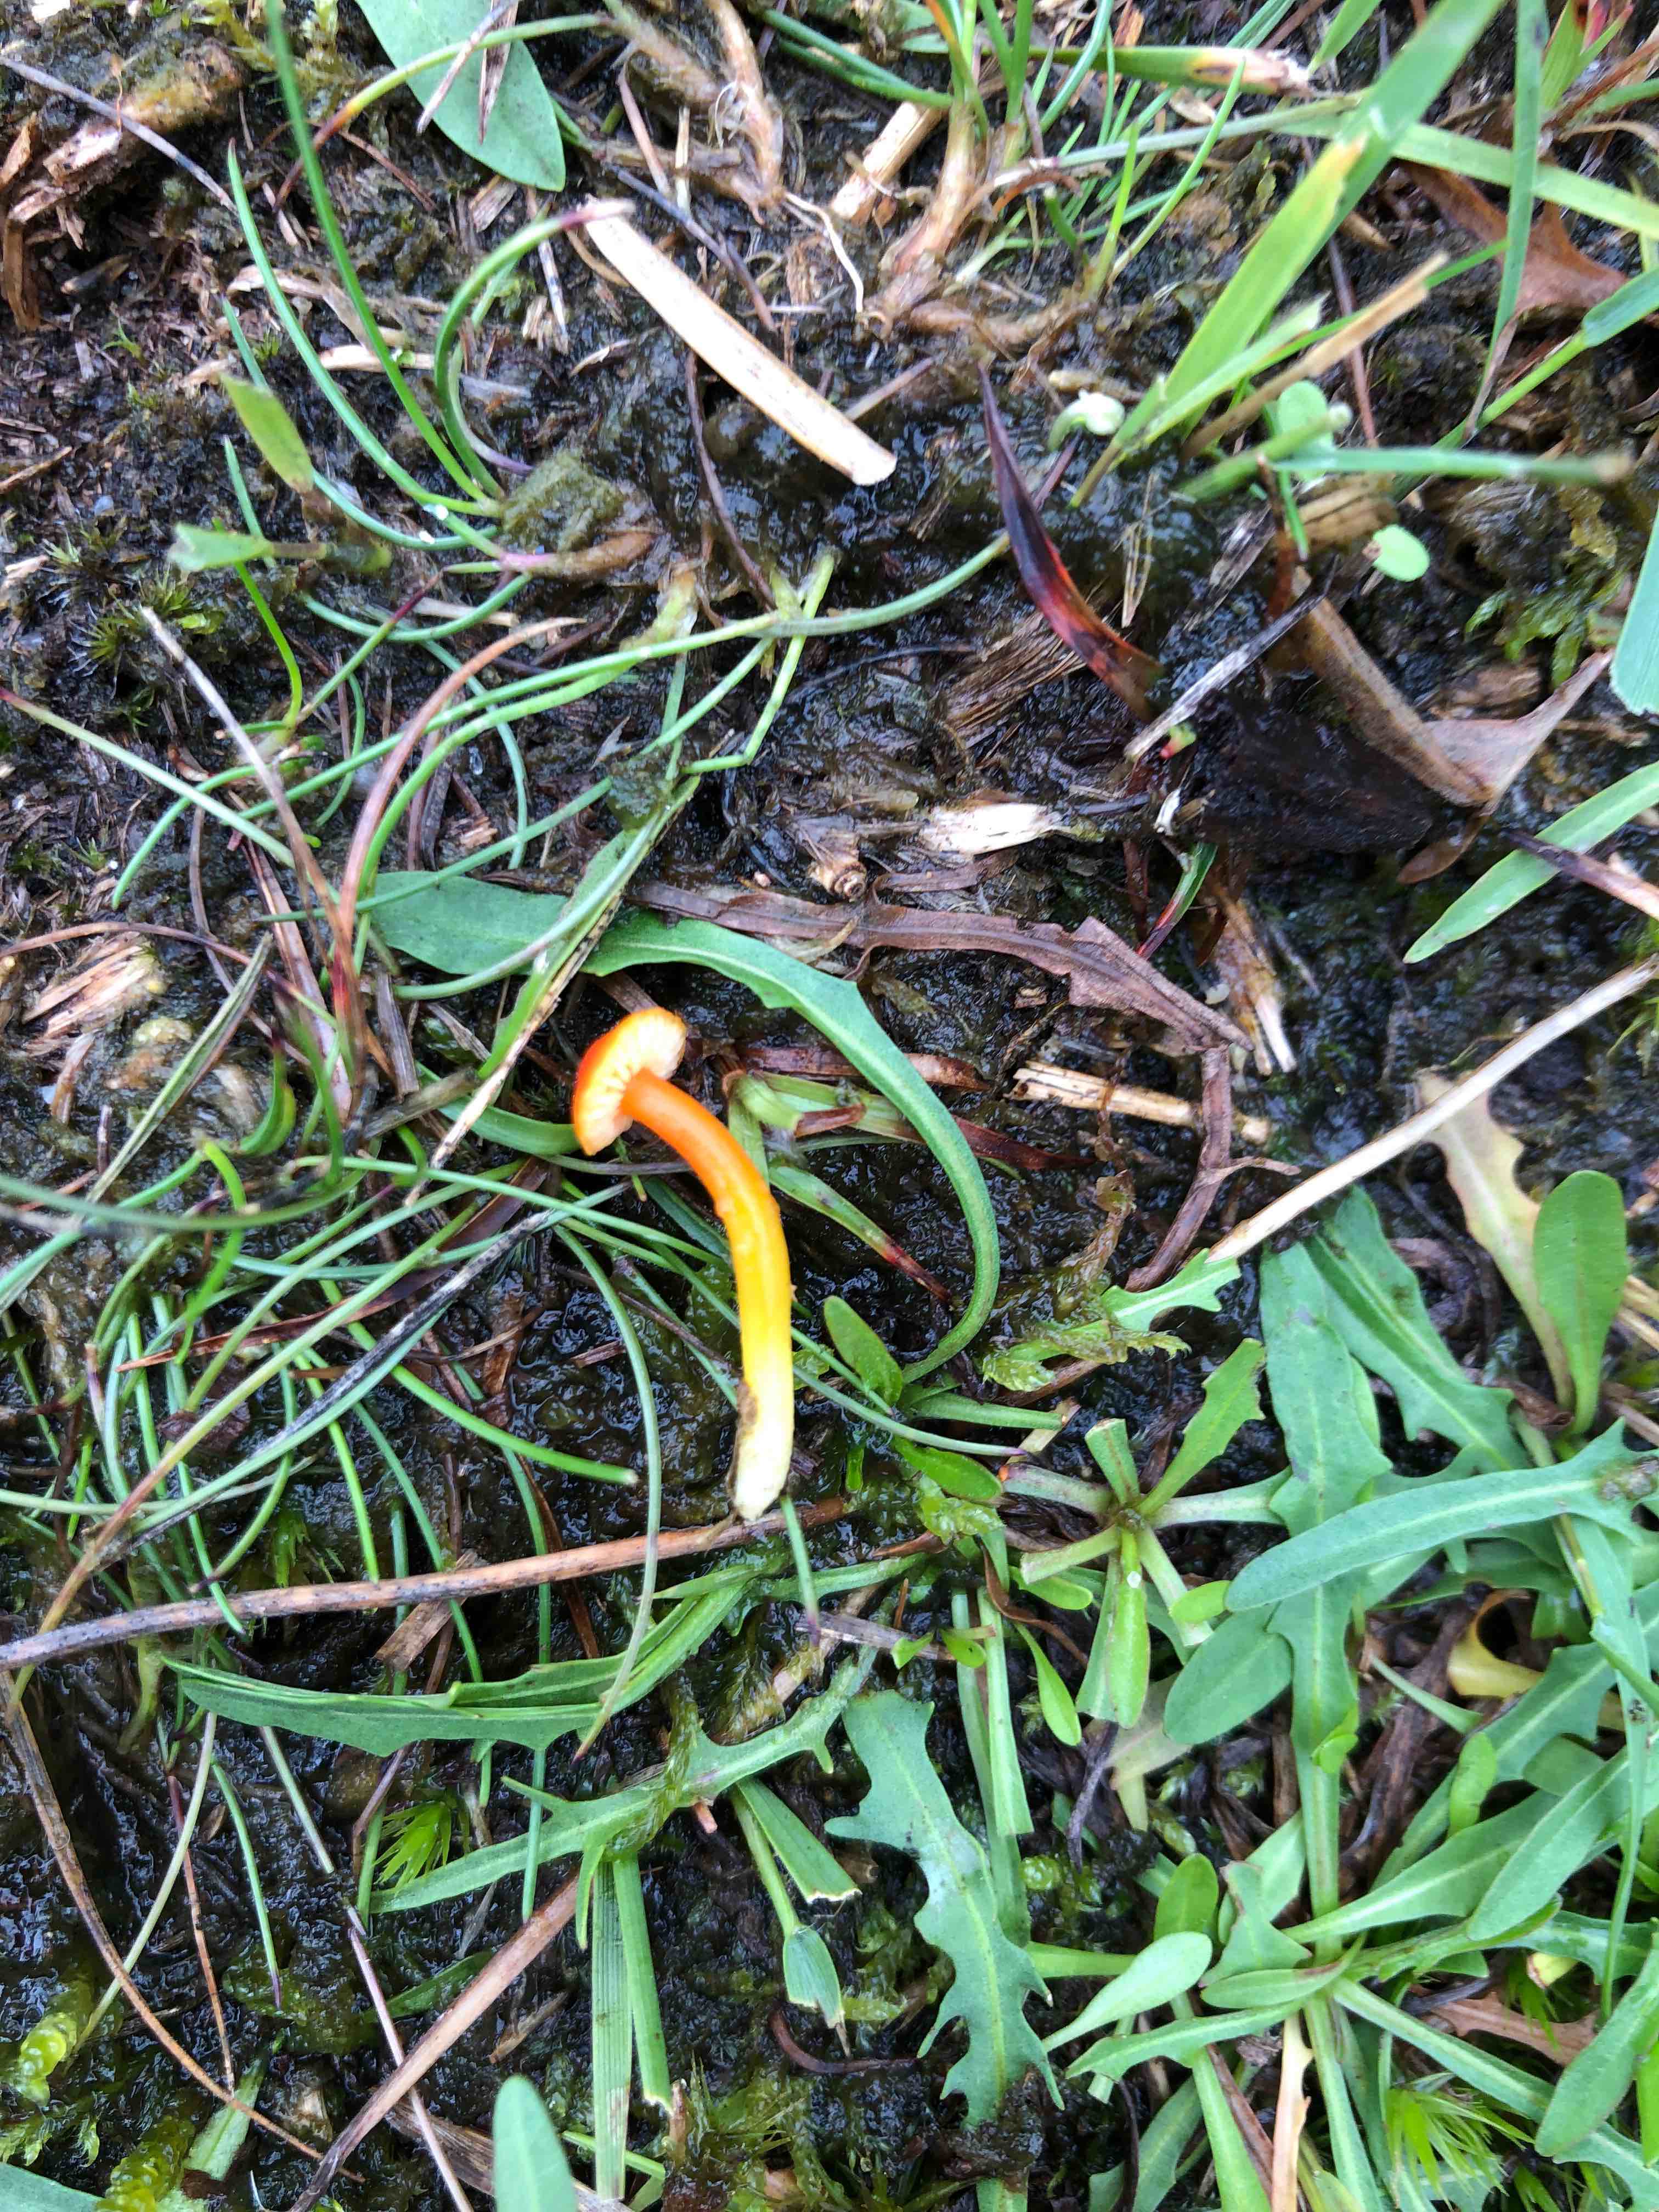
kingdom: Fungi
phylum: Basidiomycota
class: Agaricomycetes
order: Agaricales
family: Hygrophoraceae
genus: Hygrocybe
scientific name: Hygrocybe insipida
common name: liden vokshat
